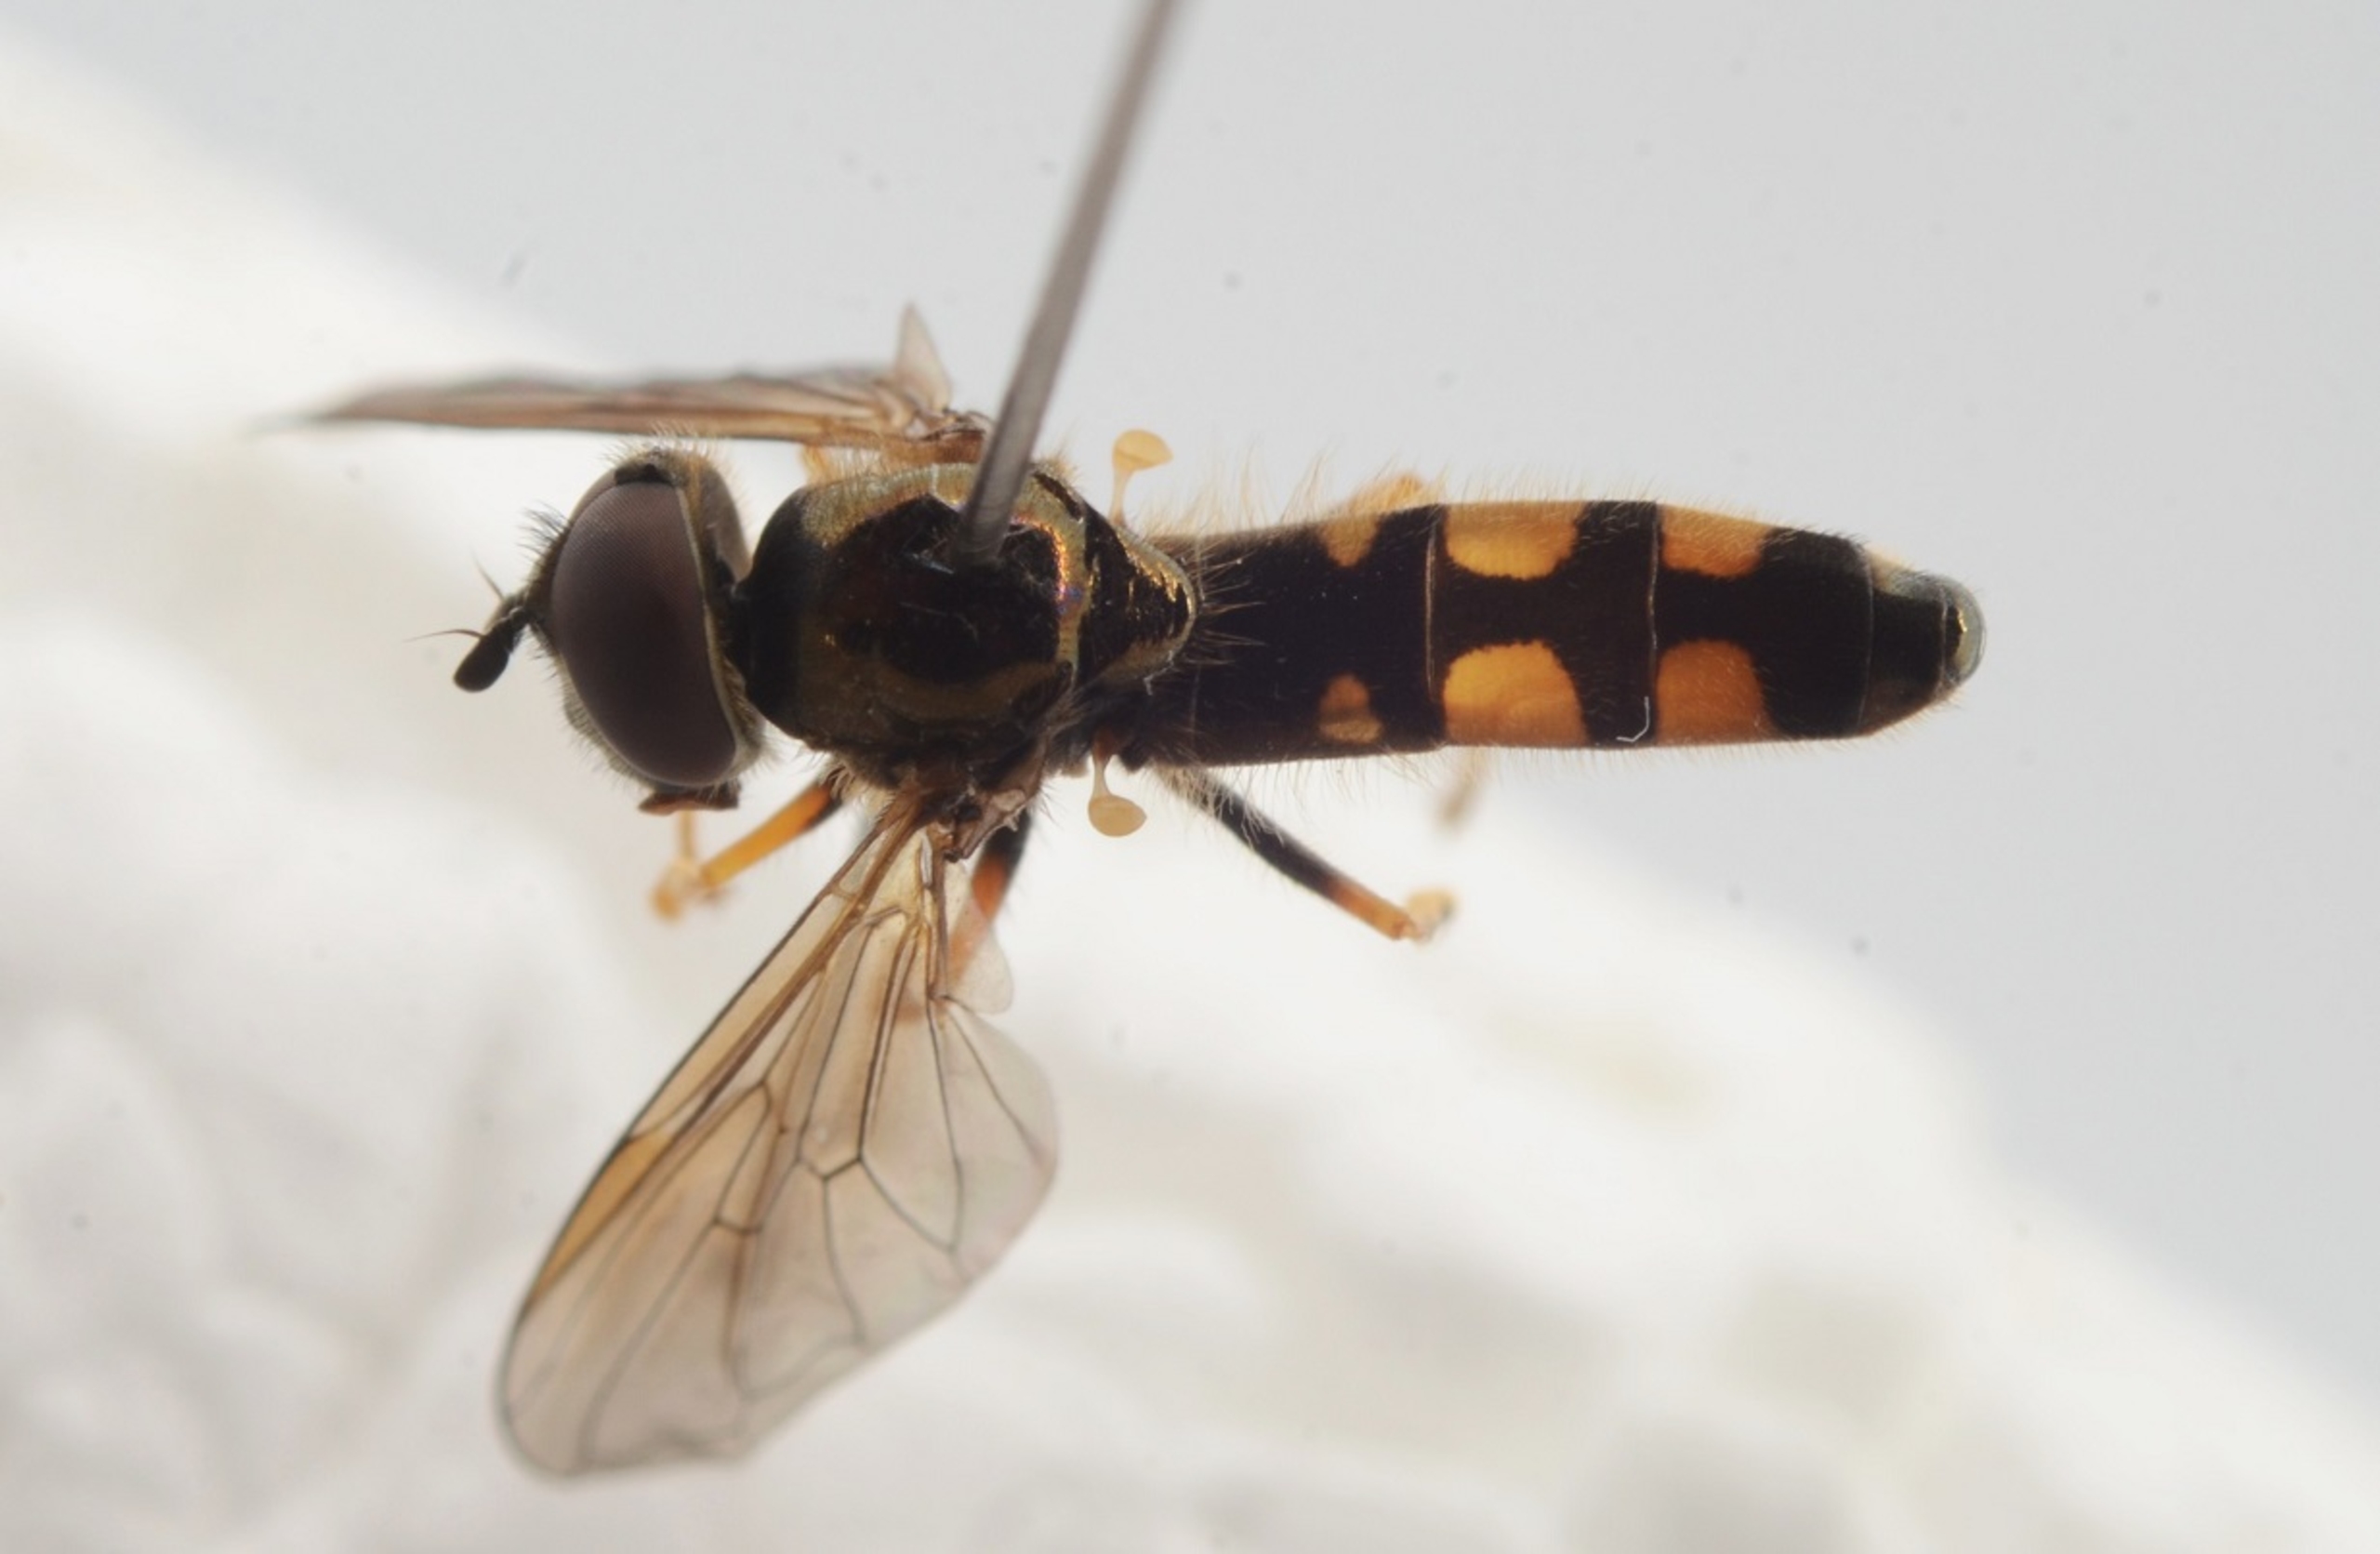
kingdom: Animalia
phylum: Arthropoda
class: Insecta
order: Diptera
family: Syrphidae
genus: Platycheirus
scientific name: Platycheirus occultus
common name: Sløret bredfodsflue
